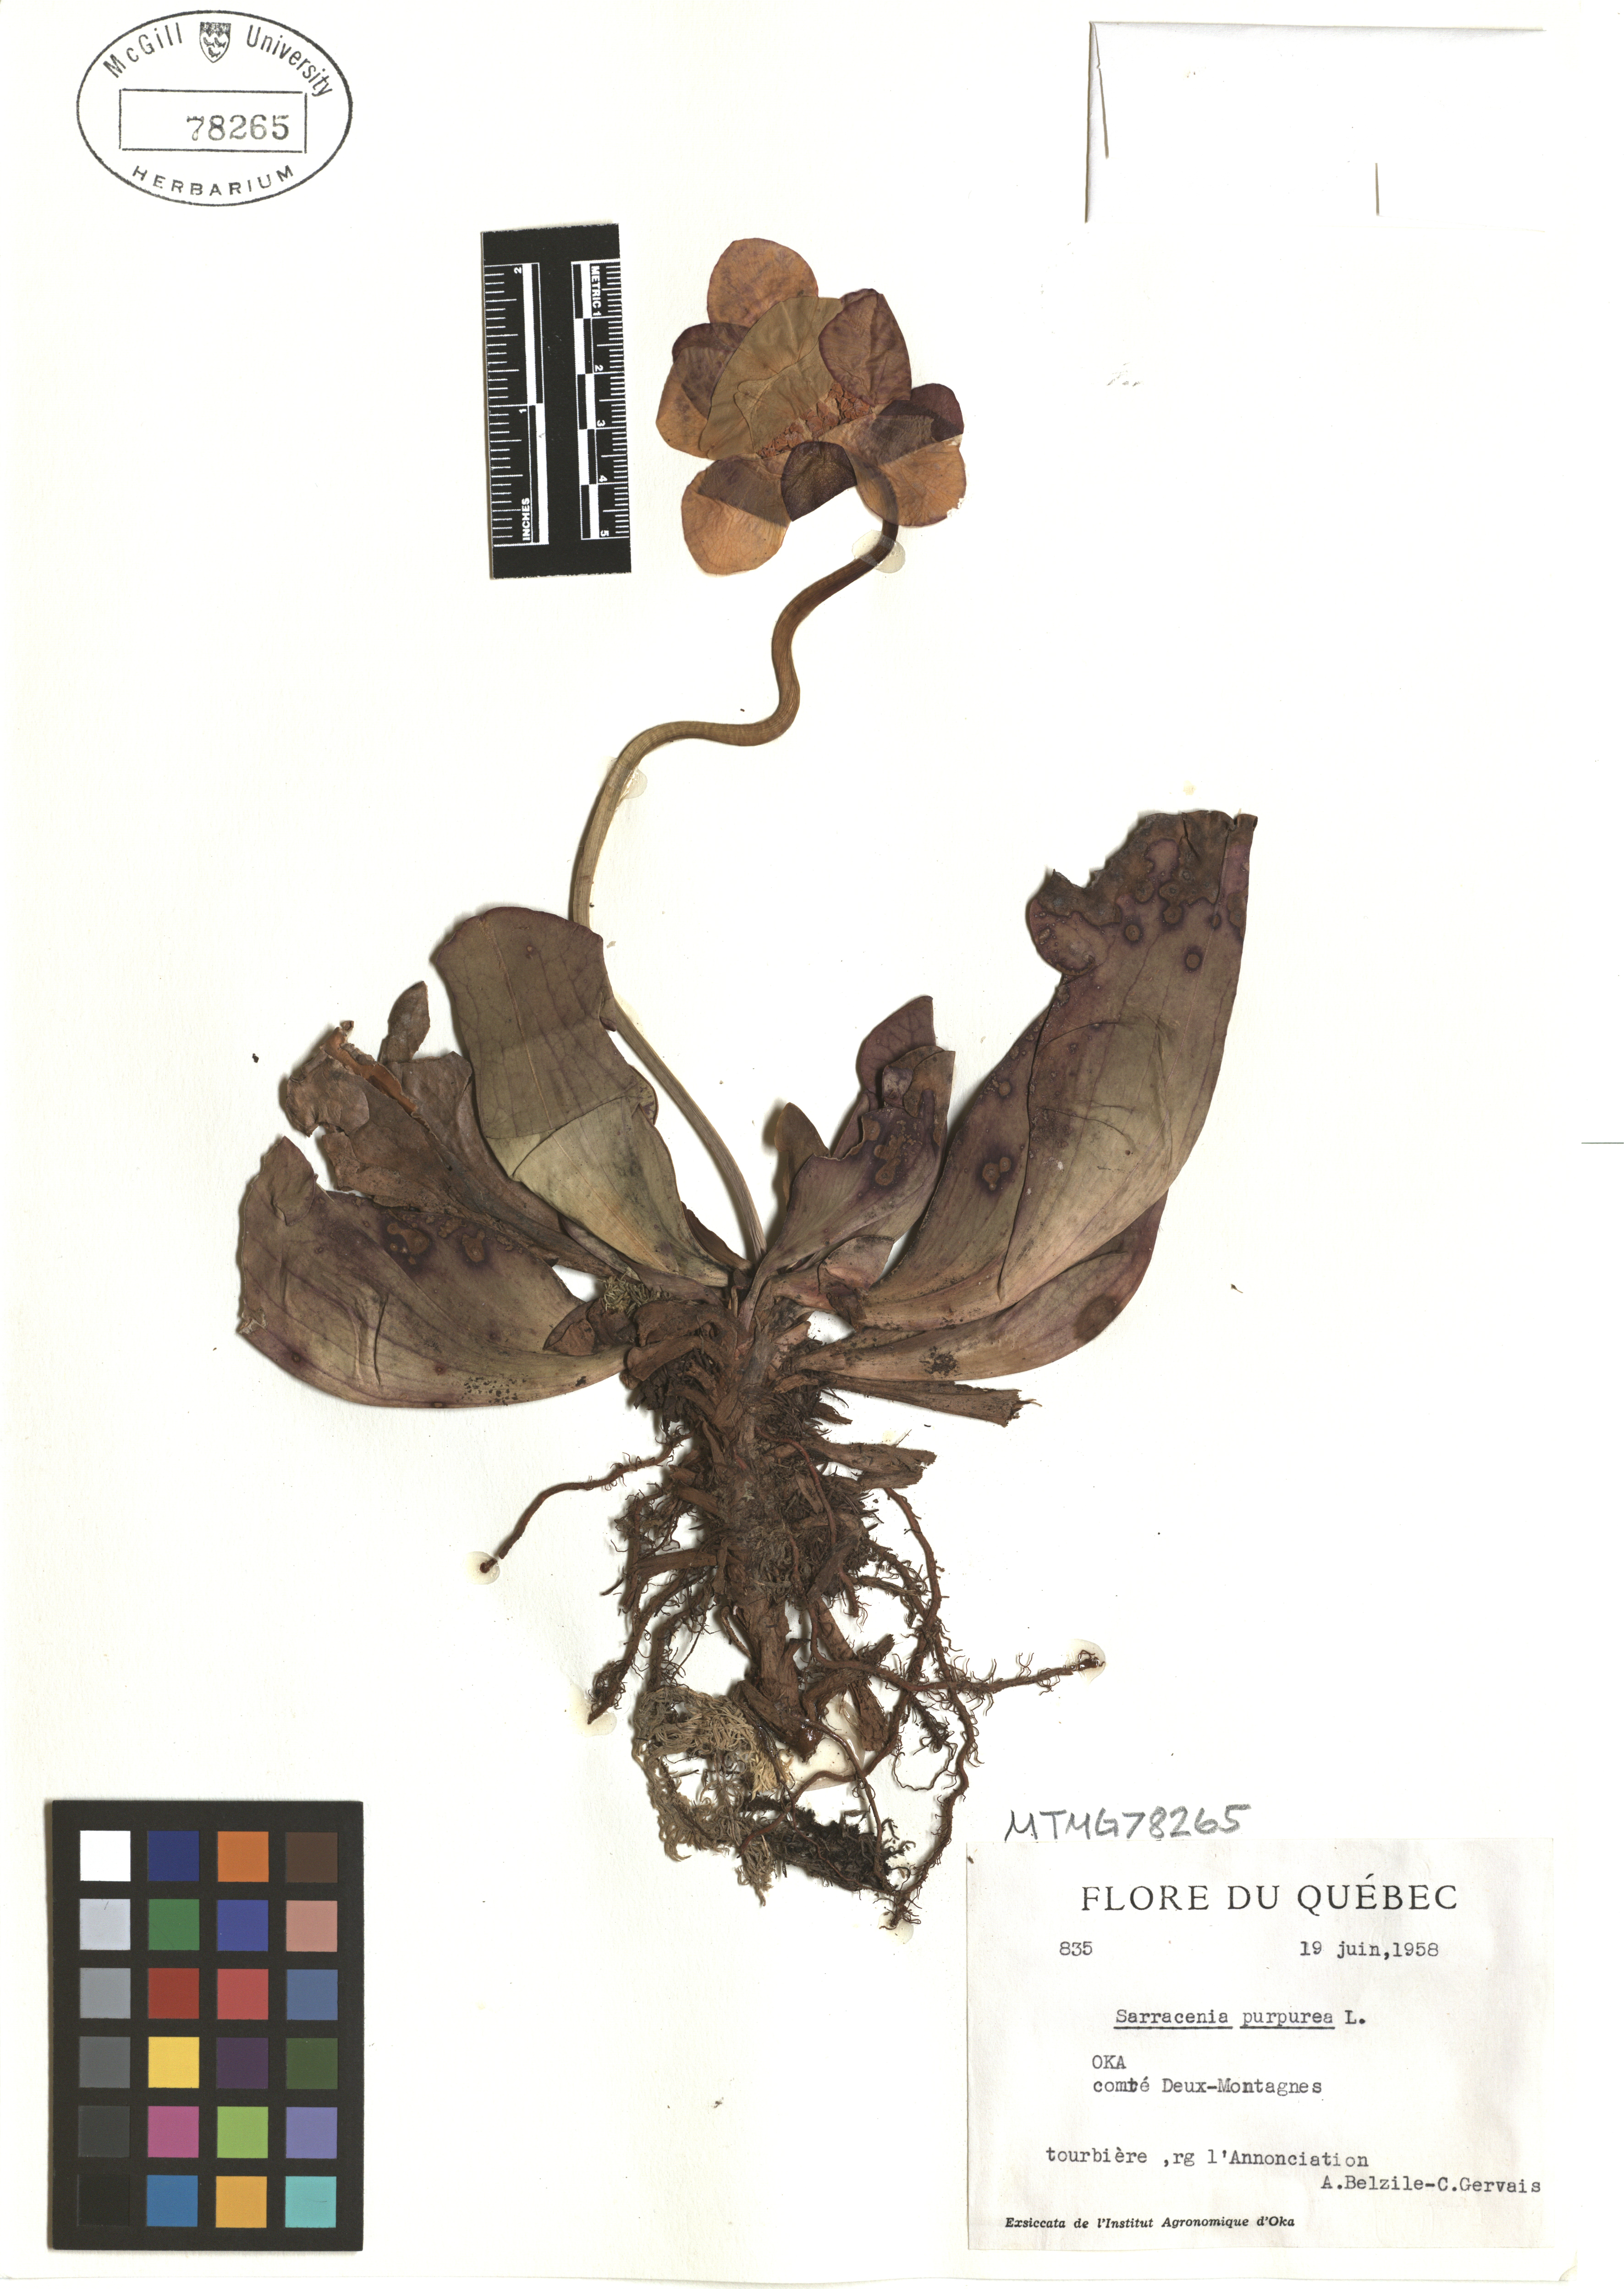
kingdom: Plantae
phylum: Tracheophyta
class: Magnoliopsida
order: Ericales
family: Sarraceniaceae
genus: Sarracenia
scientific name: Sarracenia purpurea
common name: Pitcherplant
